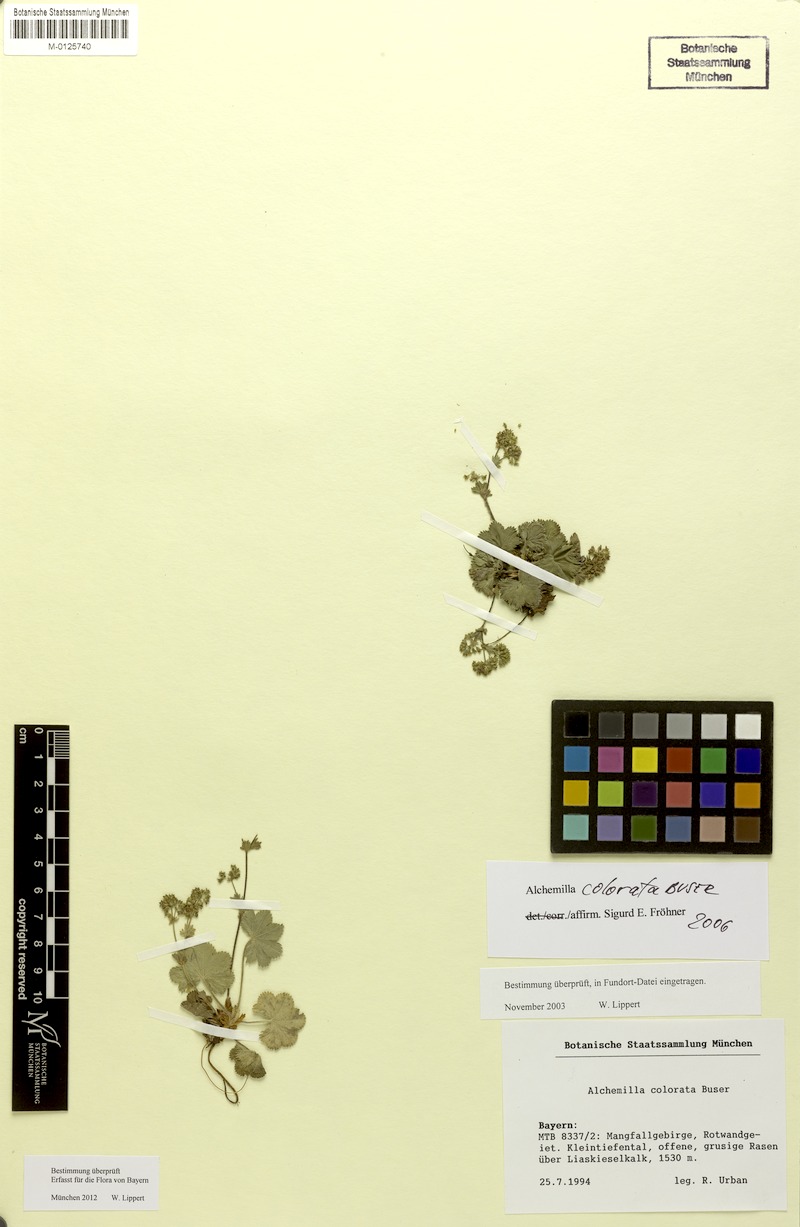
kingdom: Plantae
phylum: Tracheophyta
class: Magnoliopsida
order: Rosales
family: Rosaceae
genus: Alchemilla
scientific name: Alchemilla colorata
